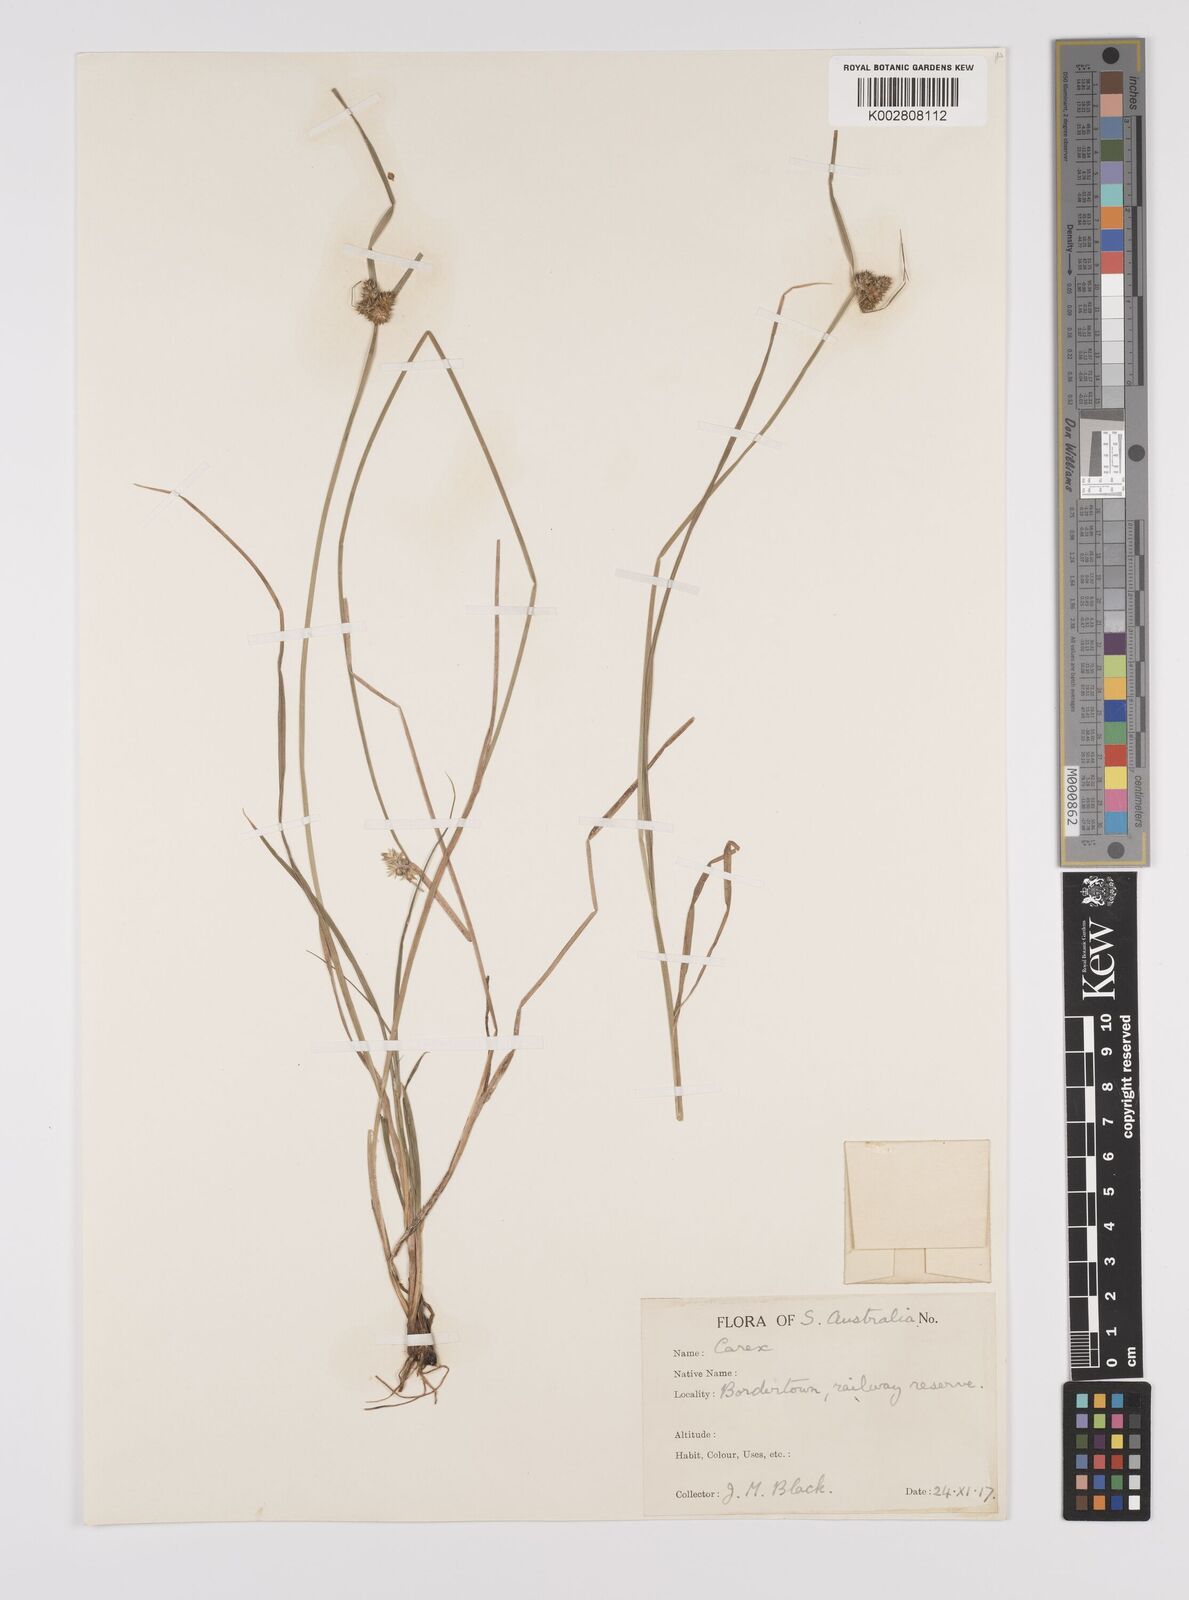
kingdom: Plantae
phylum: Tracheophyta
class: Liliopsida
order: Poales
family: Cyperaceae
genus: Carex
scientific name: Carex inversa
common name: Knob sedge
